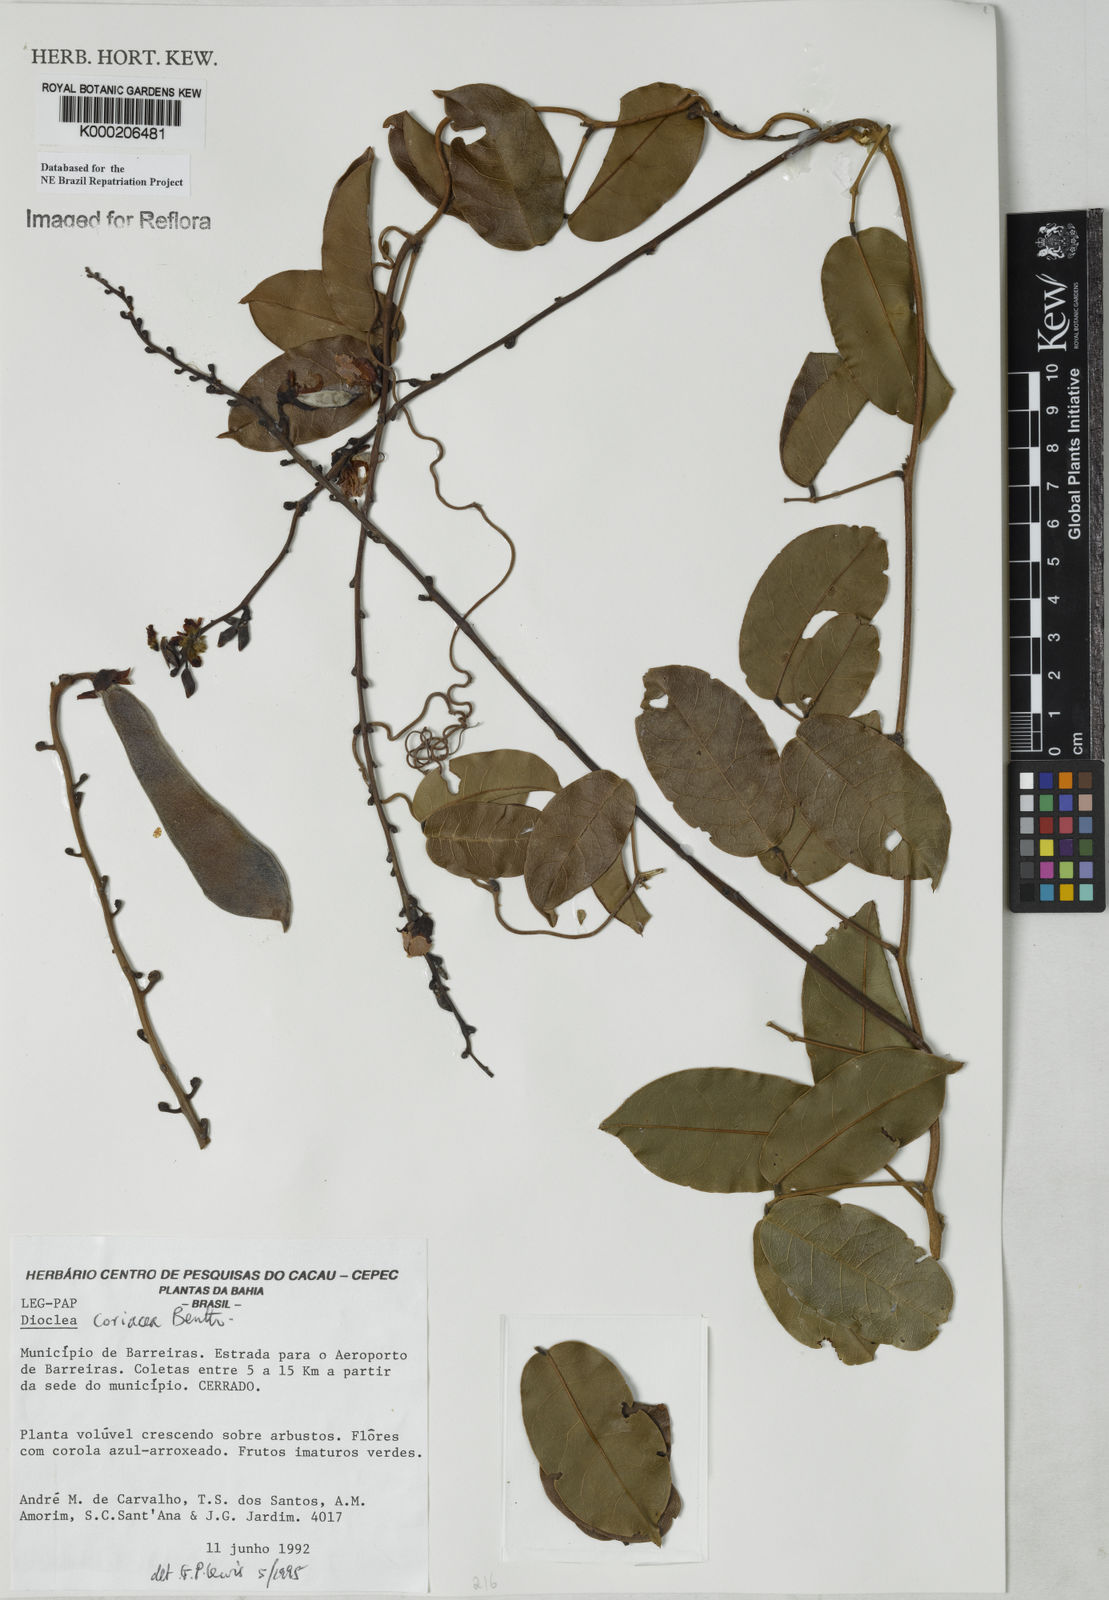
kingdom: Plantae
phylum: Tracheophyta
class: Magnoliopsida
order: Fabales
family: Fabaceae
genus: Macropsychanthus
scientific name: Macropsychanthus coriaceus
